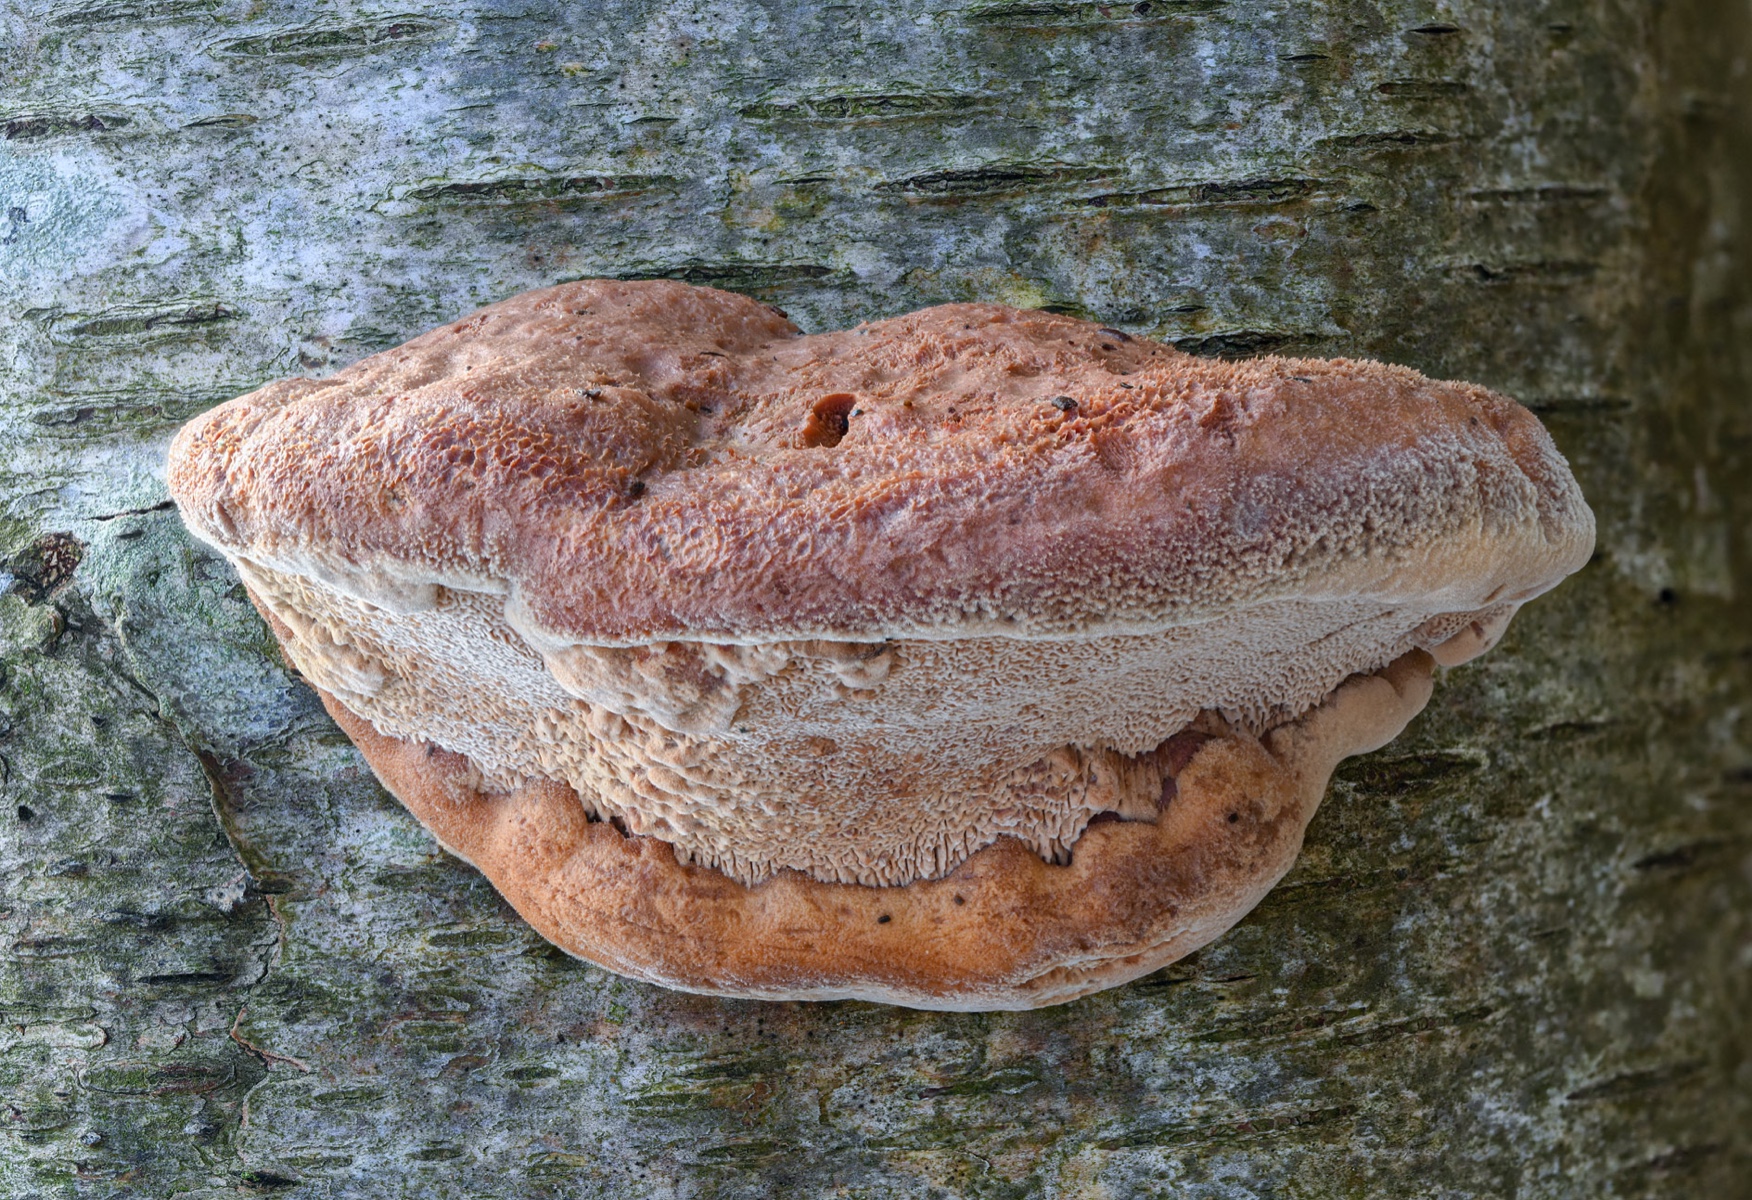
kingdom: Fungi
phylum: Basidiomycota
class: Agaricomycetes
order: Polyporales
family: Phanerochaetaceae
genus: Hapalopilus
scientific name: Hapalopilus rutilans
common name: rødlig okkerporesvamp
